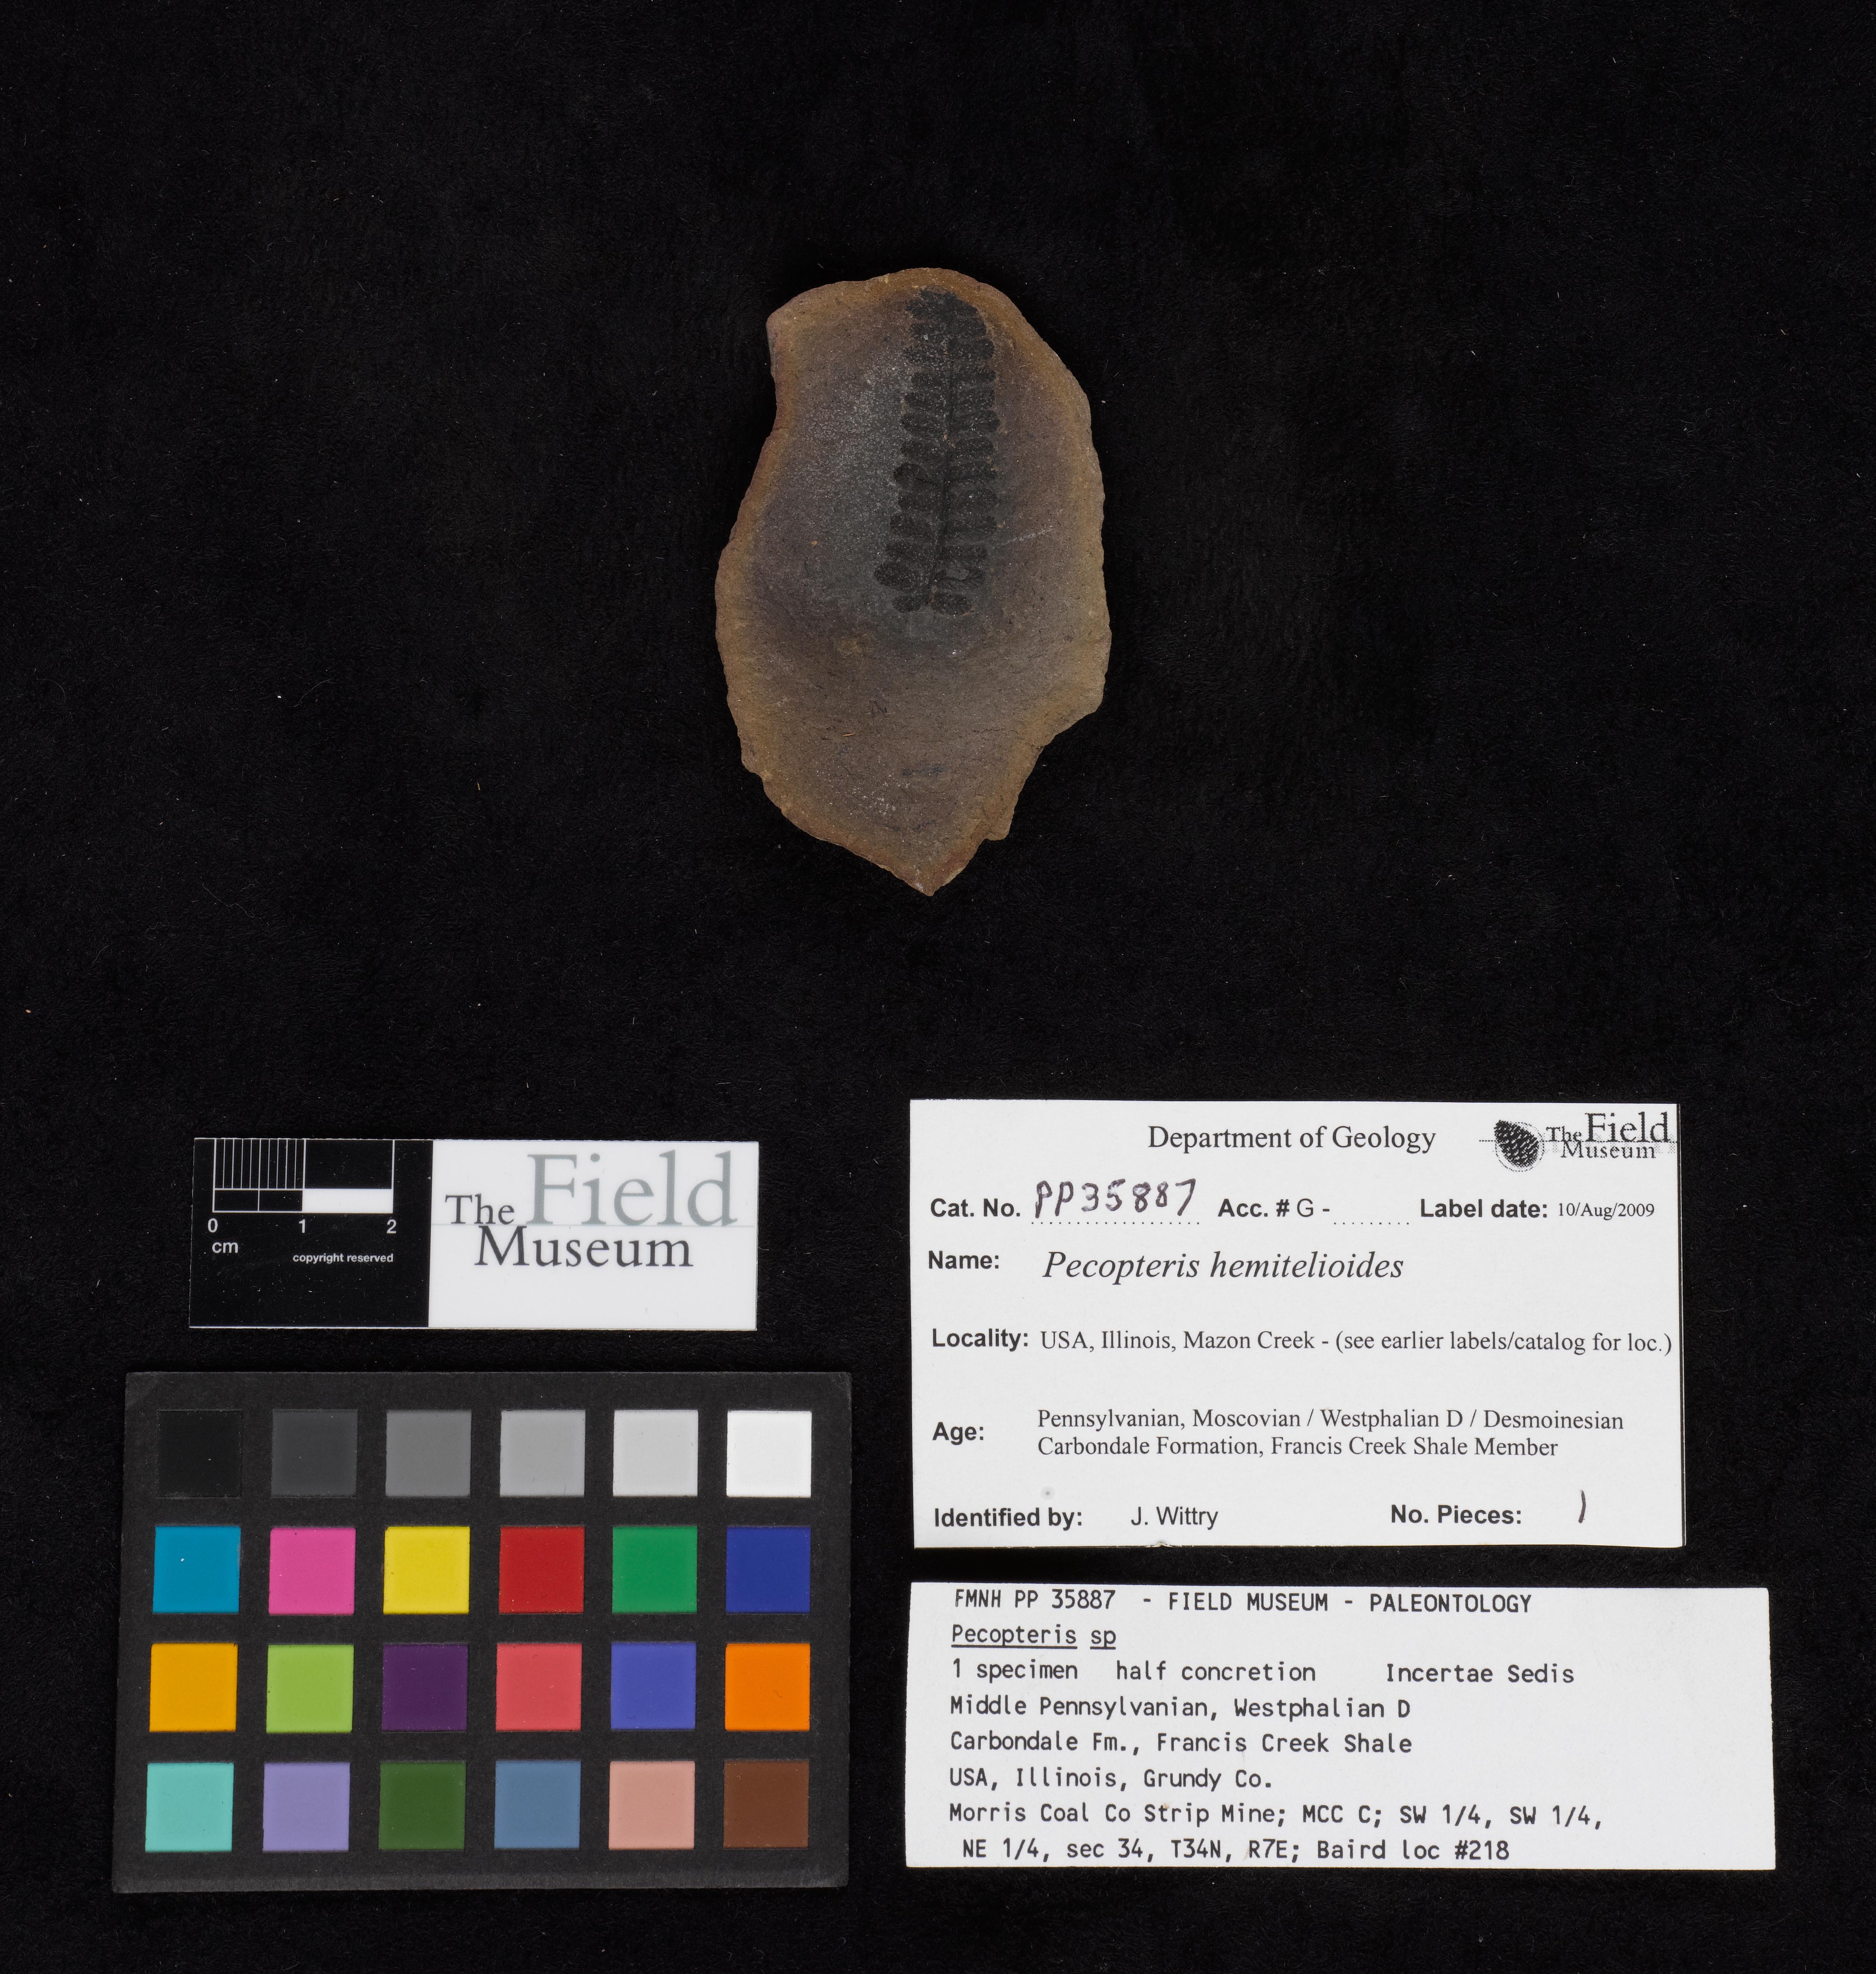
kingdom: Plantae
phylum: Tracheophyta
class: Polypodiopsida
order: Marattiales
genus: Cyathocarpus
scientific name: Cyathocarpus
